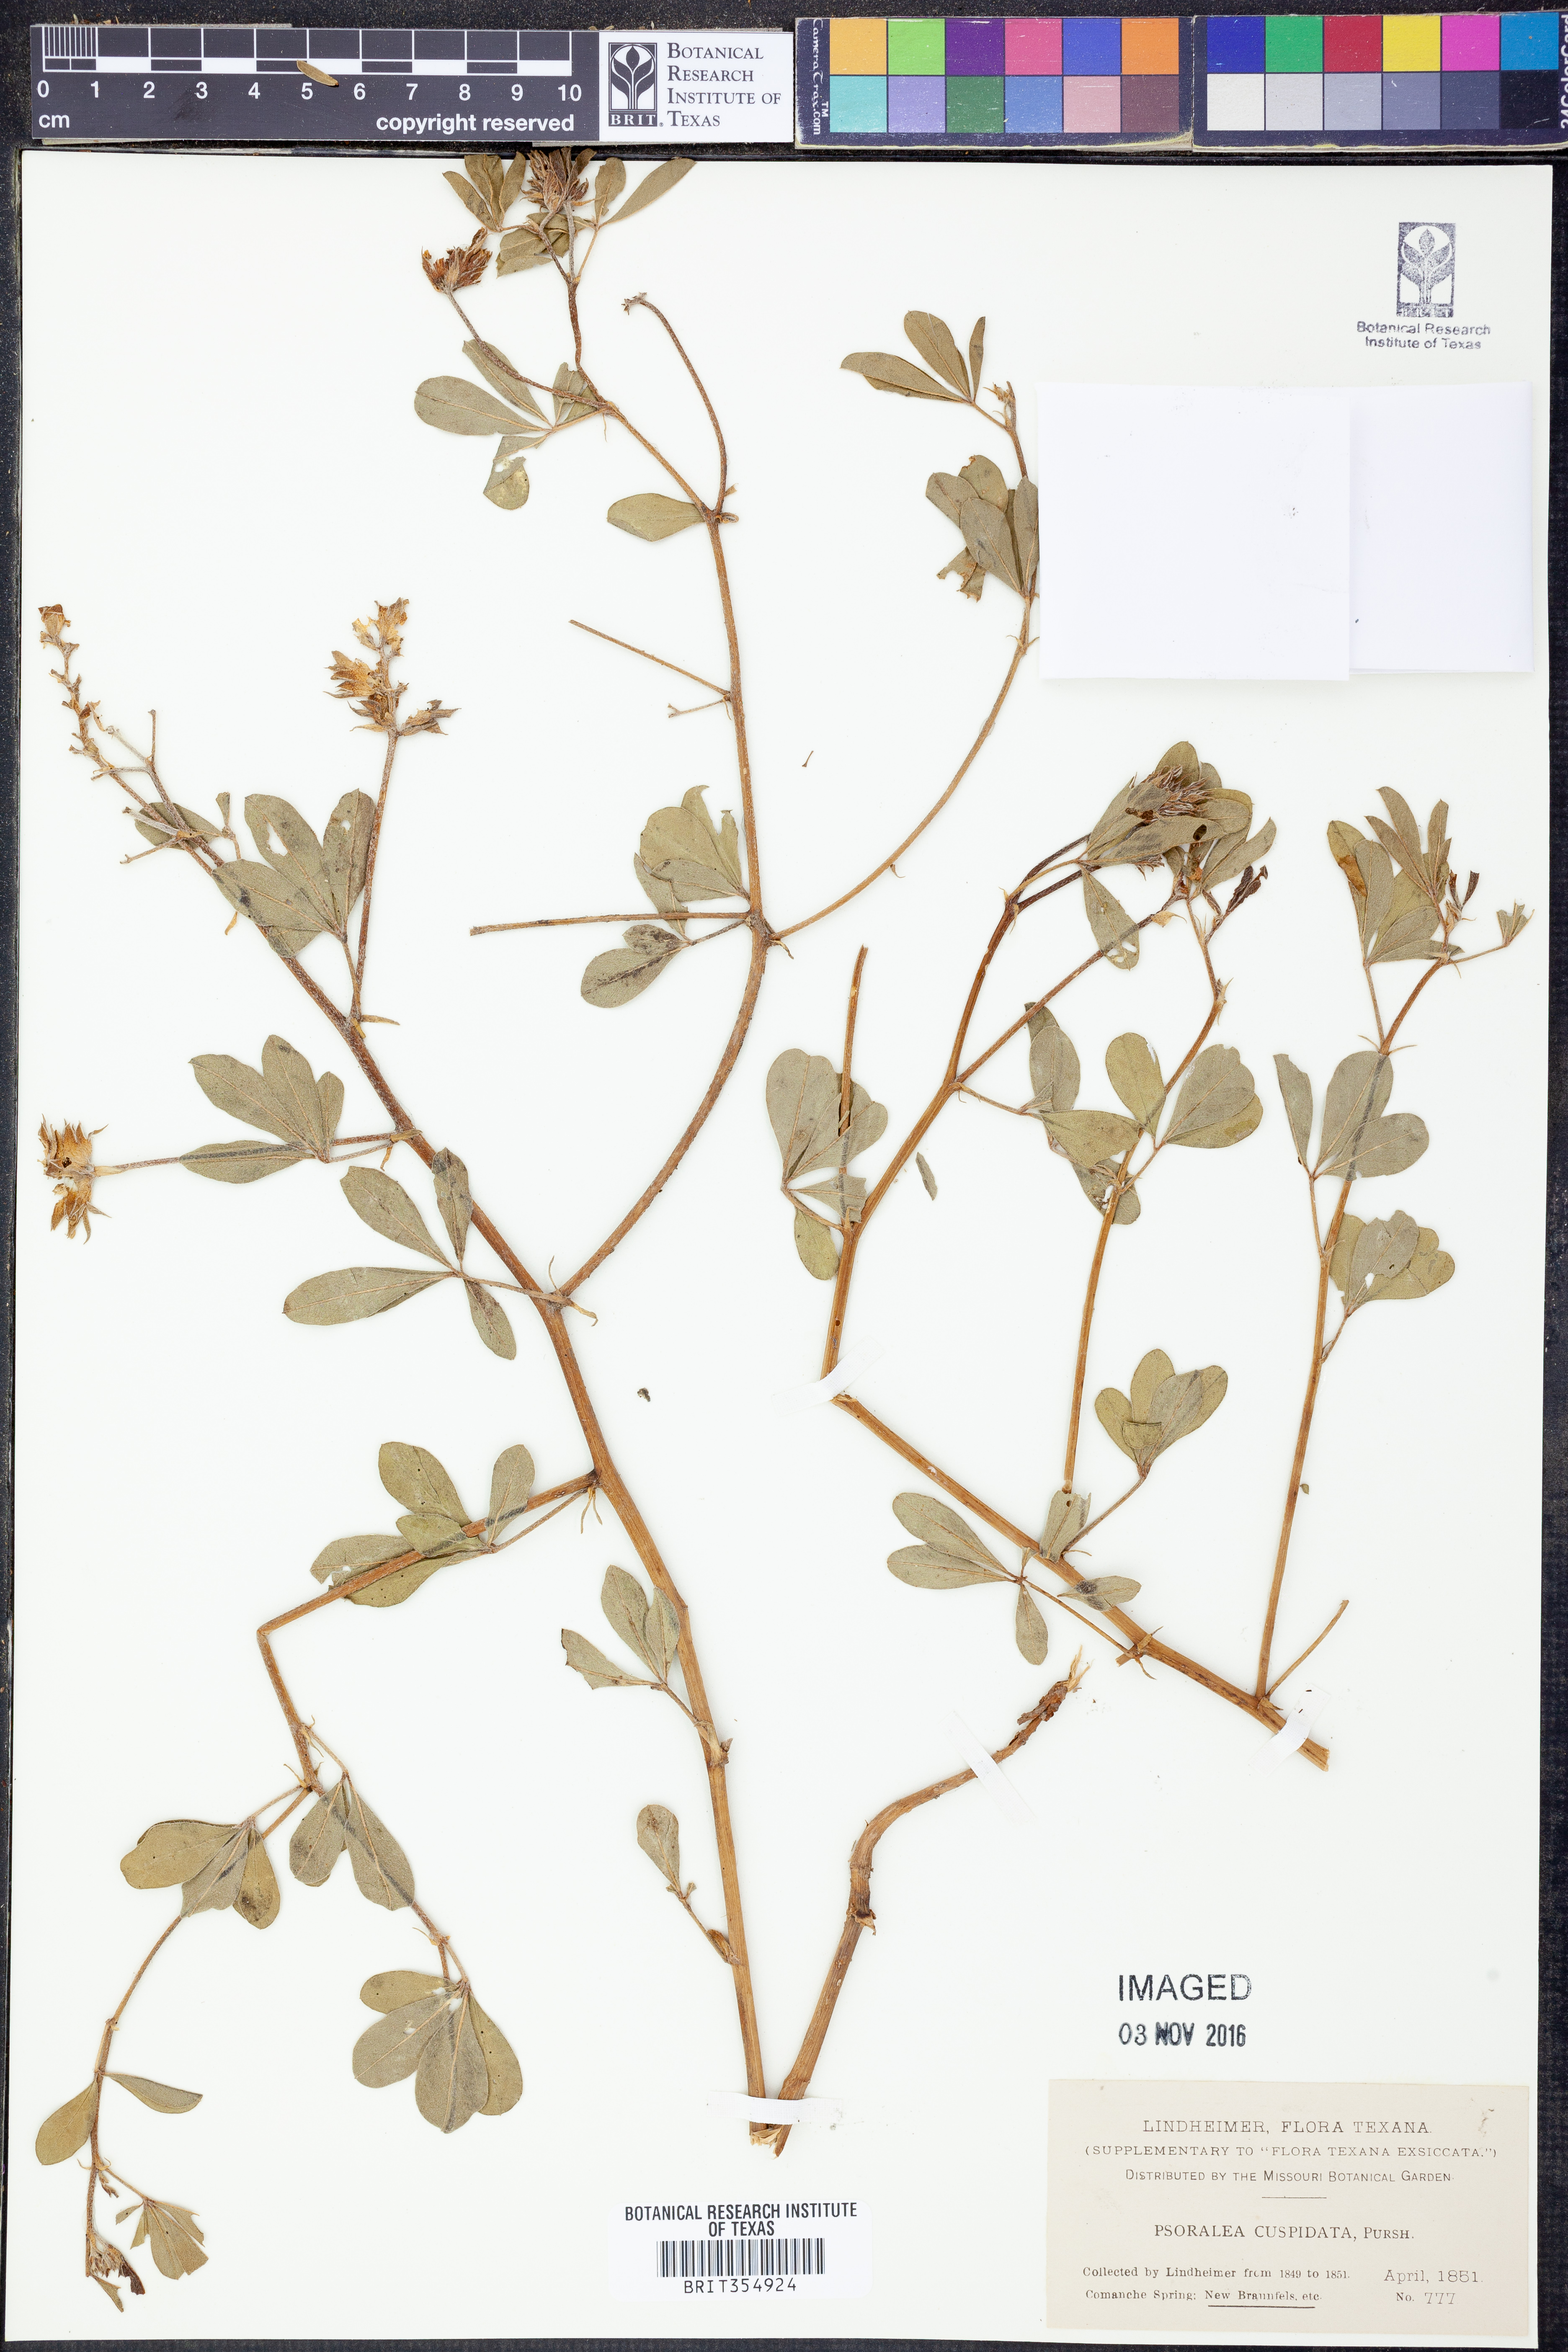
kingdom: Plantae
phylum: Tracheophyta
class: Magnoliopsida
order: Fabales
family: Fabaceae
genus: Pediomelum
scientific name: Pediomelum cuspidatum
